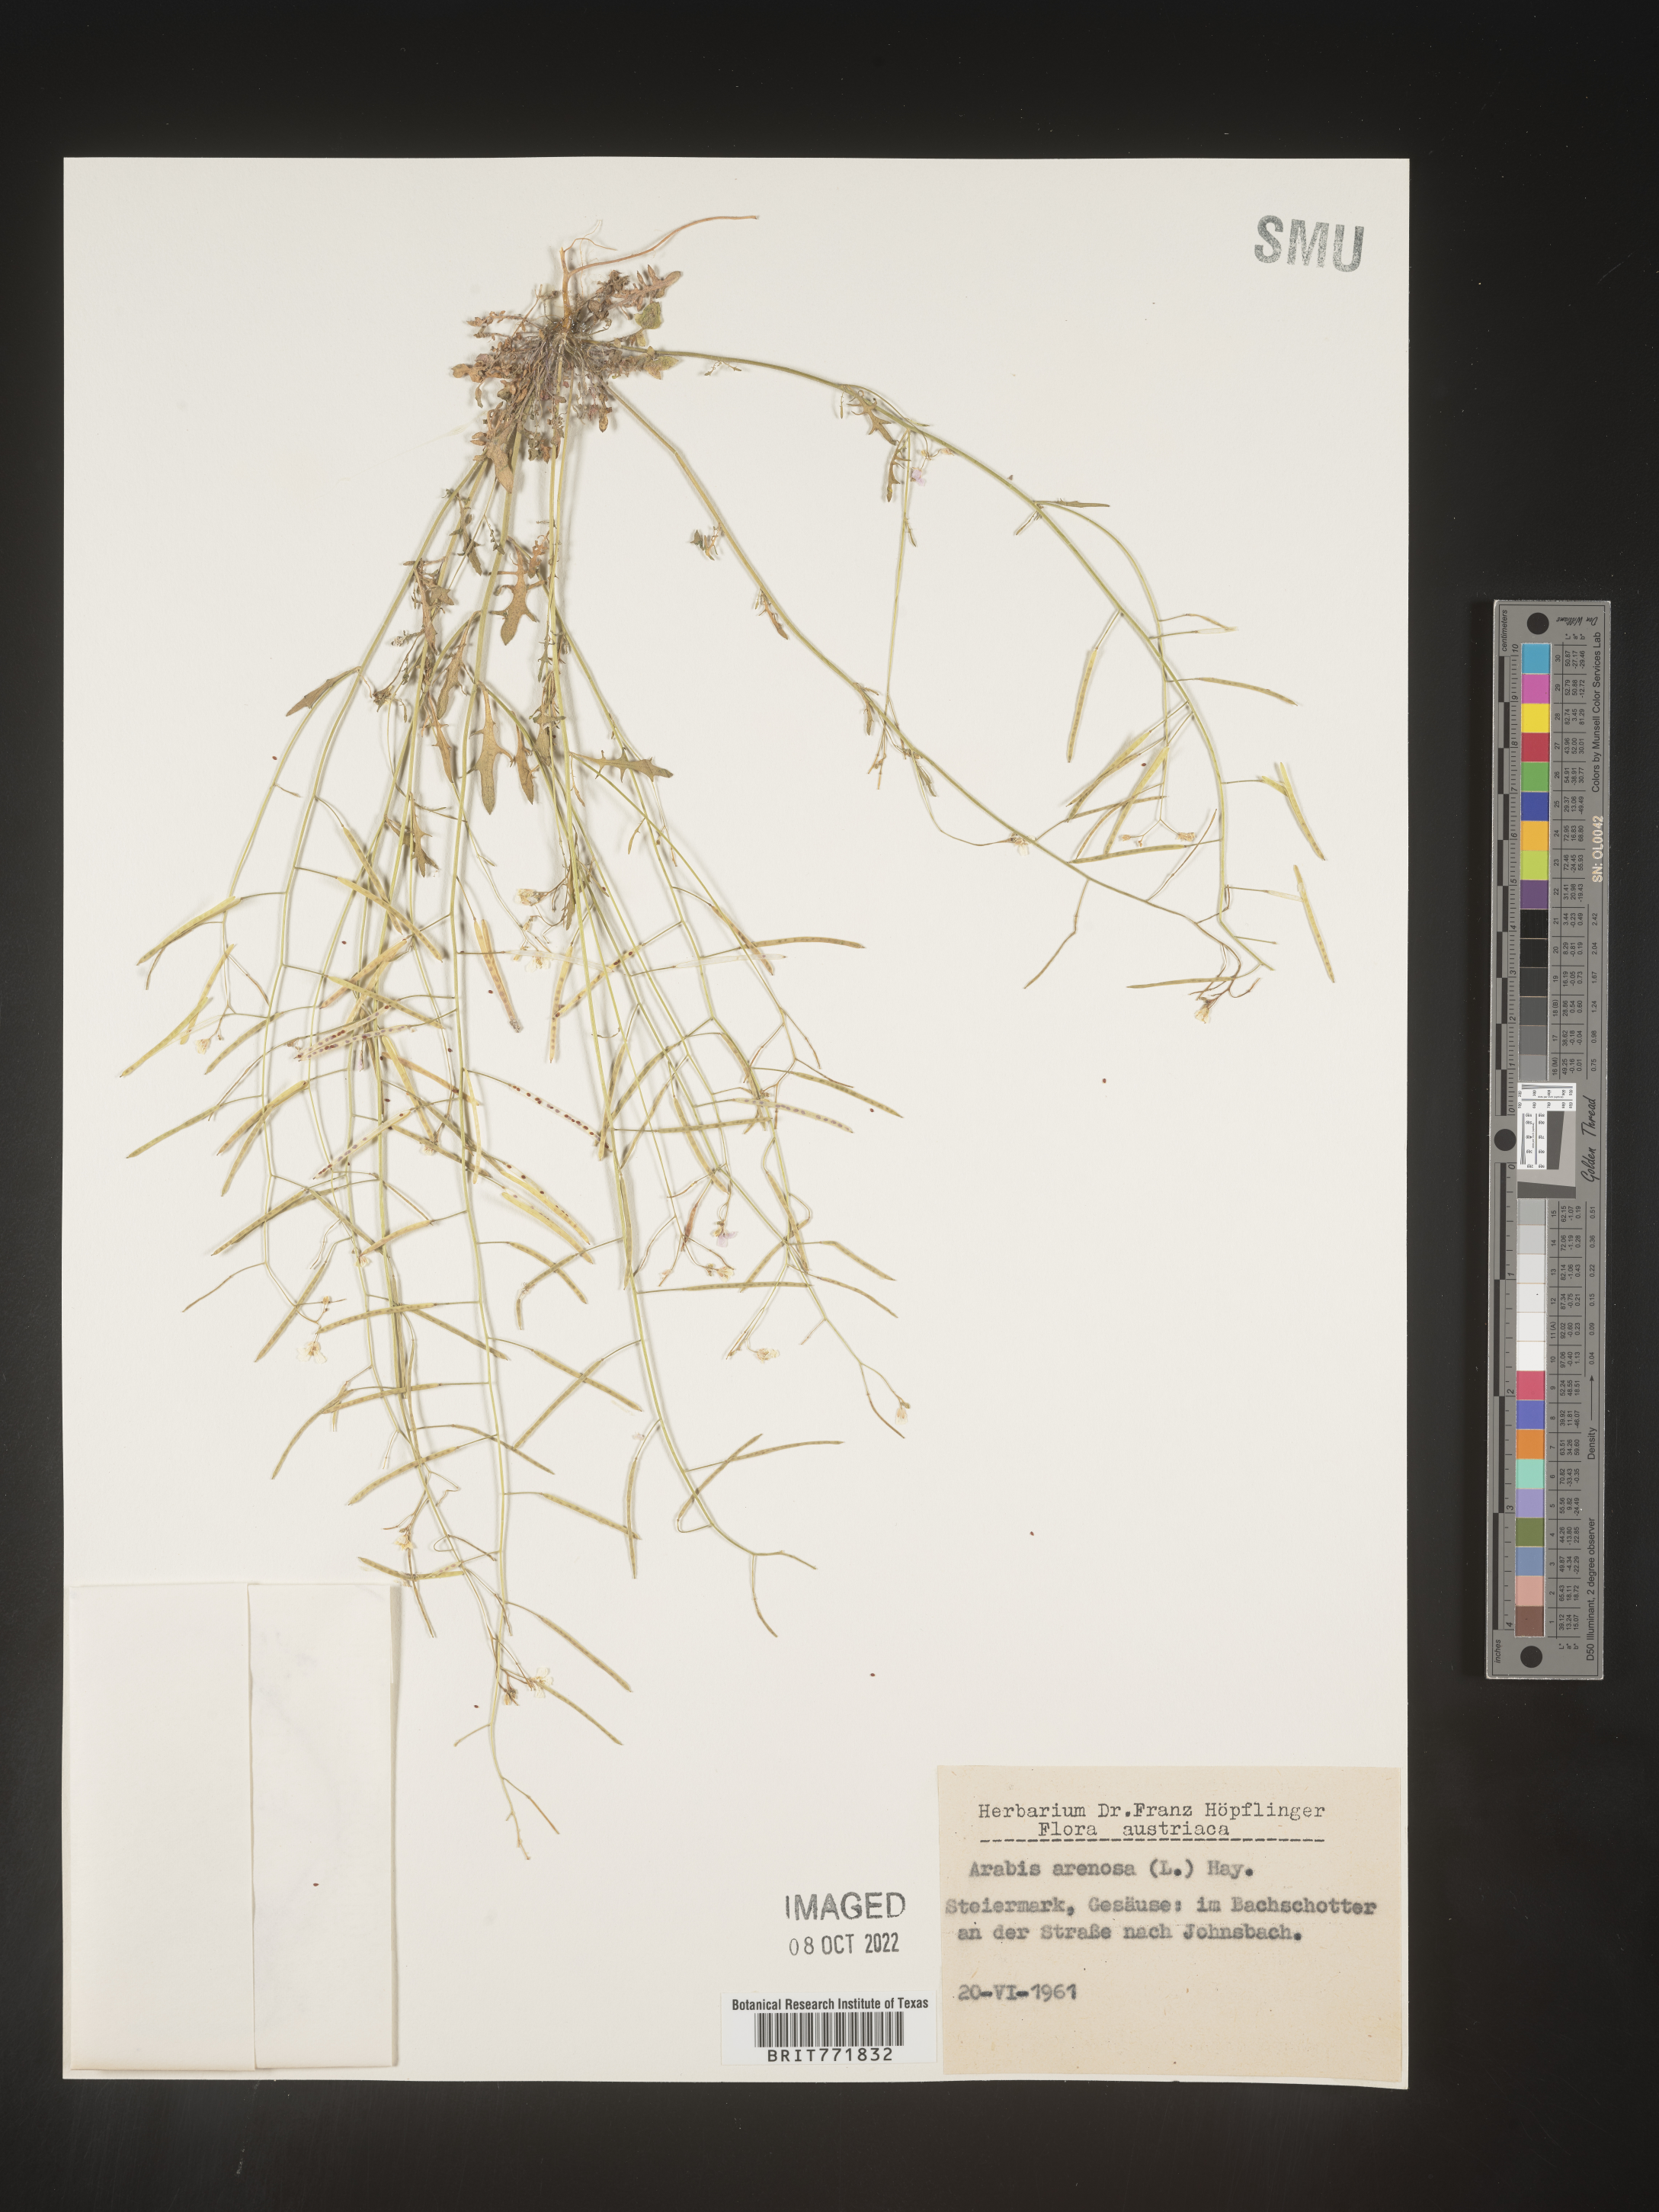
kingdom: Plantae
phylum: Tracheophyta
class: Magnoliopsida
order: Brassicales
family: Brassicaceae
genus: Arabis
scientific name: Arabis
